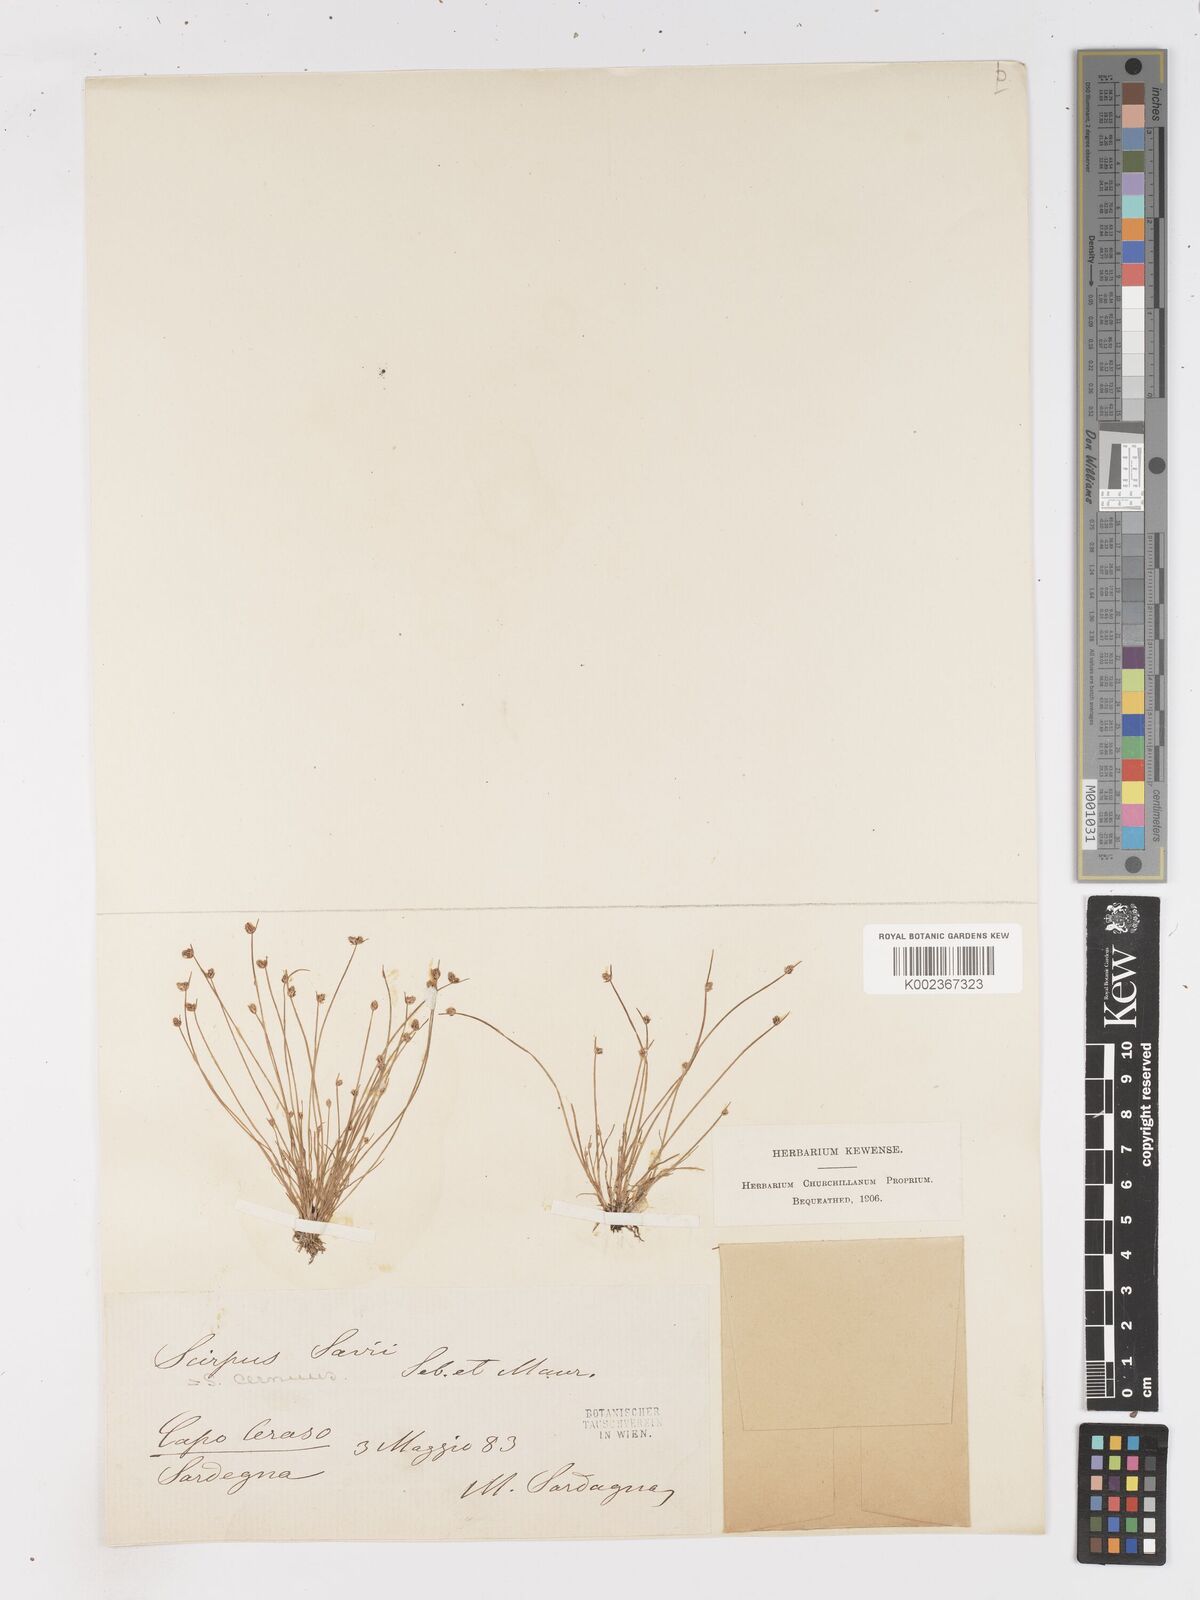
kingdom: Plantae
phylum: Tracheophyta
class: Liliopsida
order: Poales
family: Cyperaceae
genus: Isolepis
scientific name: Isolepis cernua
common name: Slender club-rush
